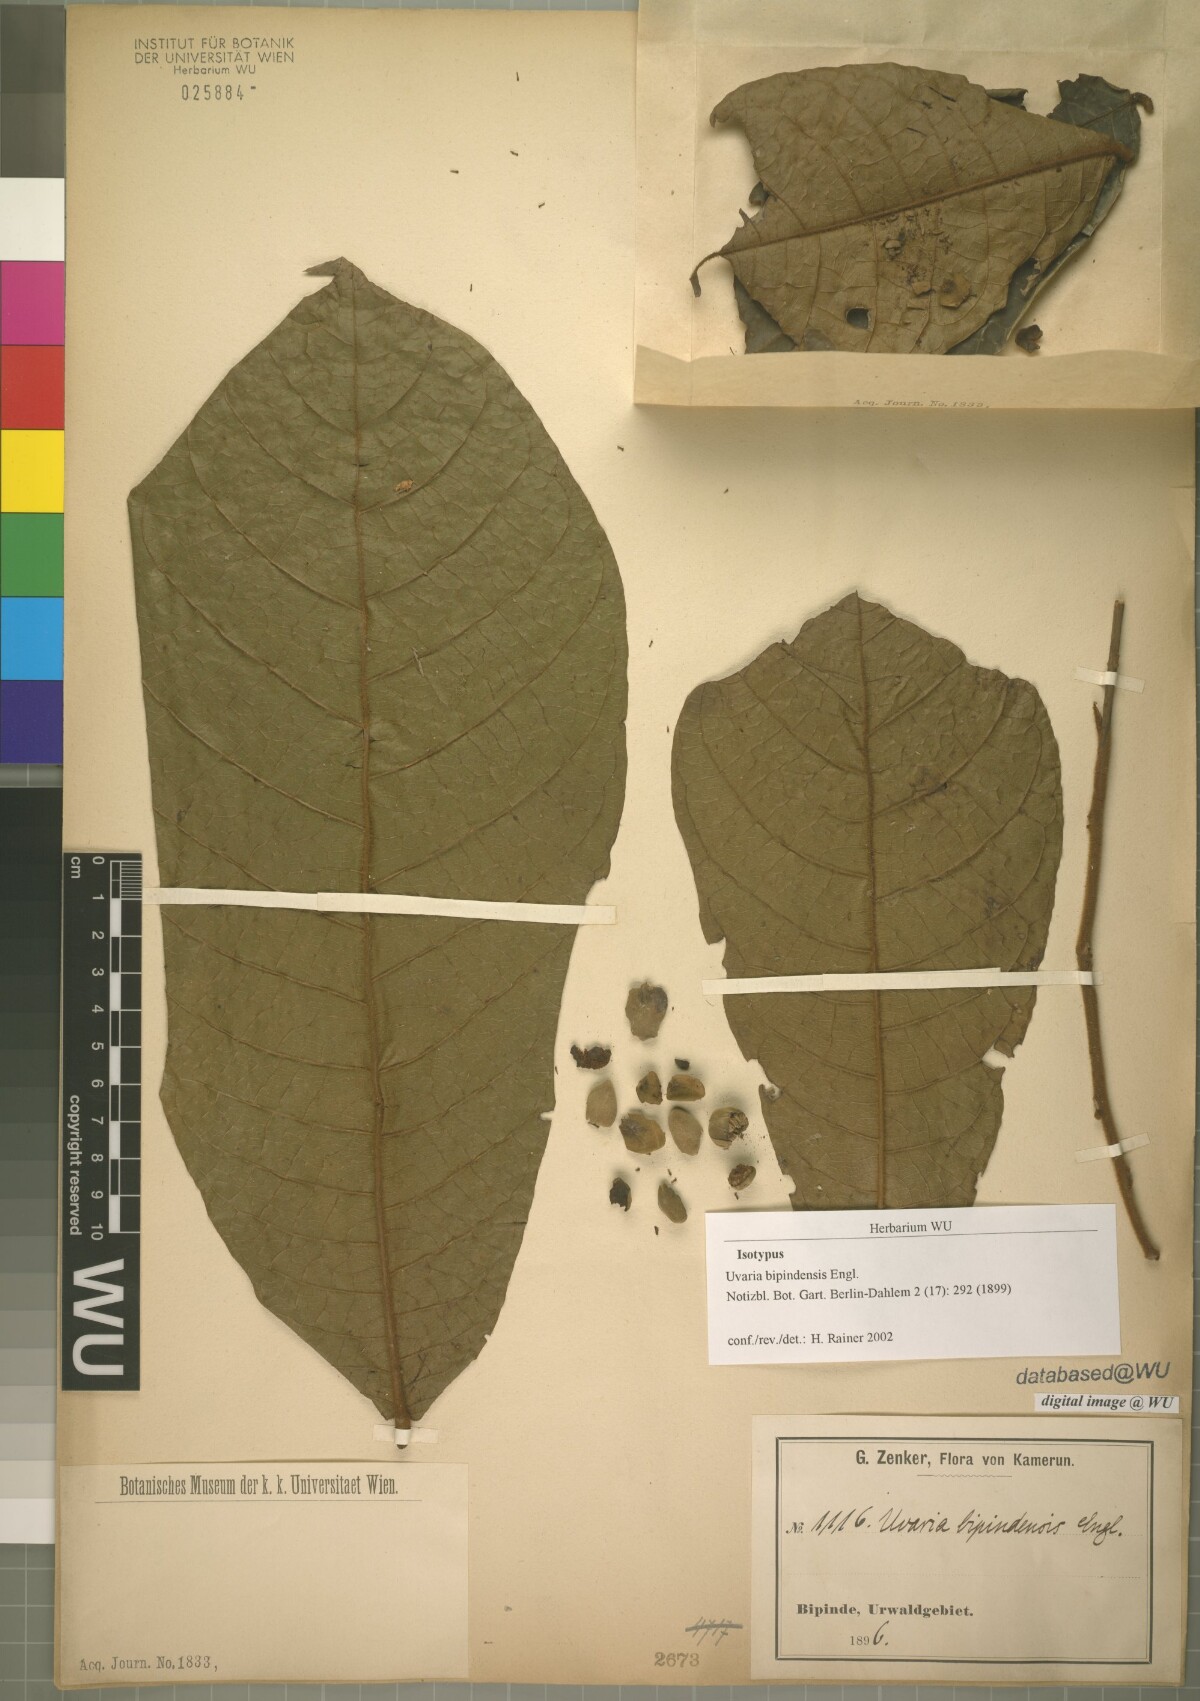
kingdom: Plantae
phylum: Tracheophyta
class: Magnoliopsida
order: Magnoliales
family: Annonaceae
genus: Uvaria
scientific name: Uvaria bipindensis
